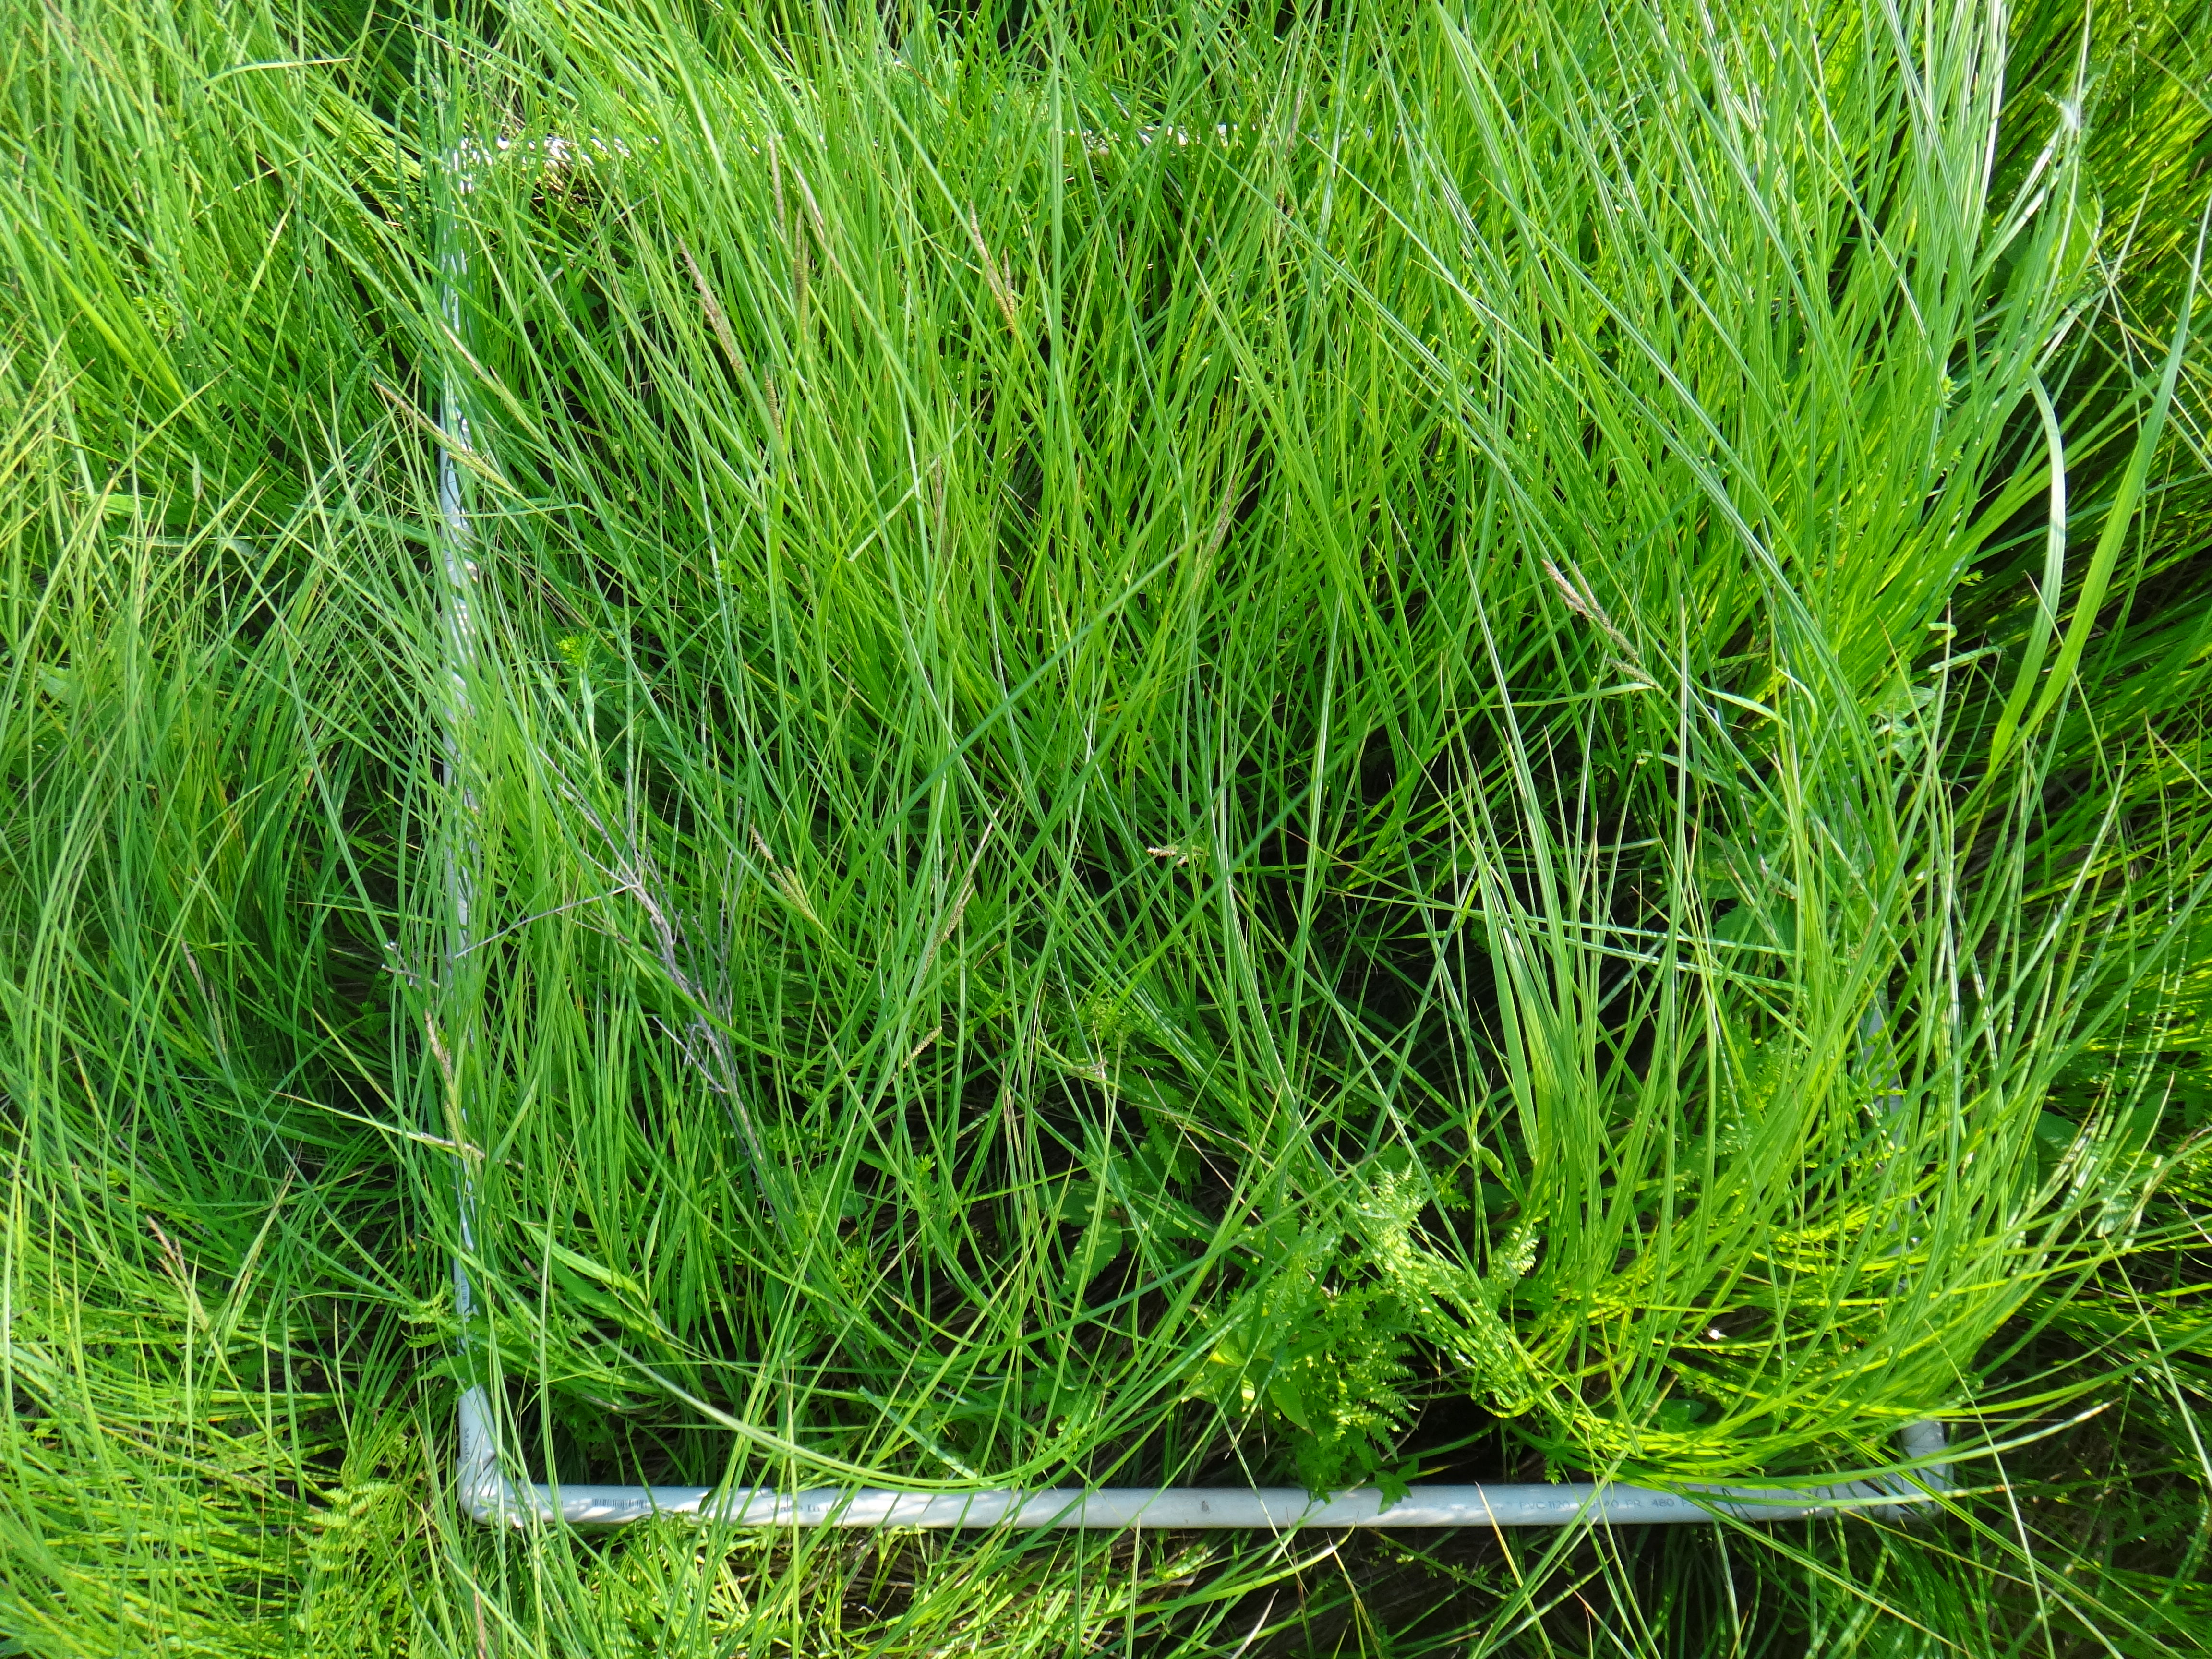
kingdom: Plantae
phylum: Tracheophyta
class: Magnoliopsida
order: Lamiales
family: Lamiaceae
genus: Mentha
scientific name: Mentha canadensis
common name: American corn mint
